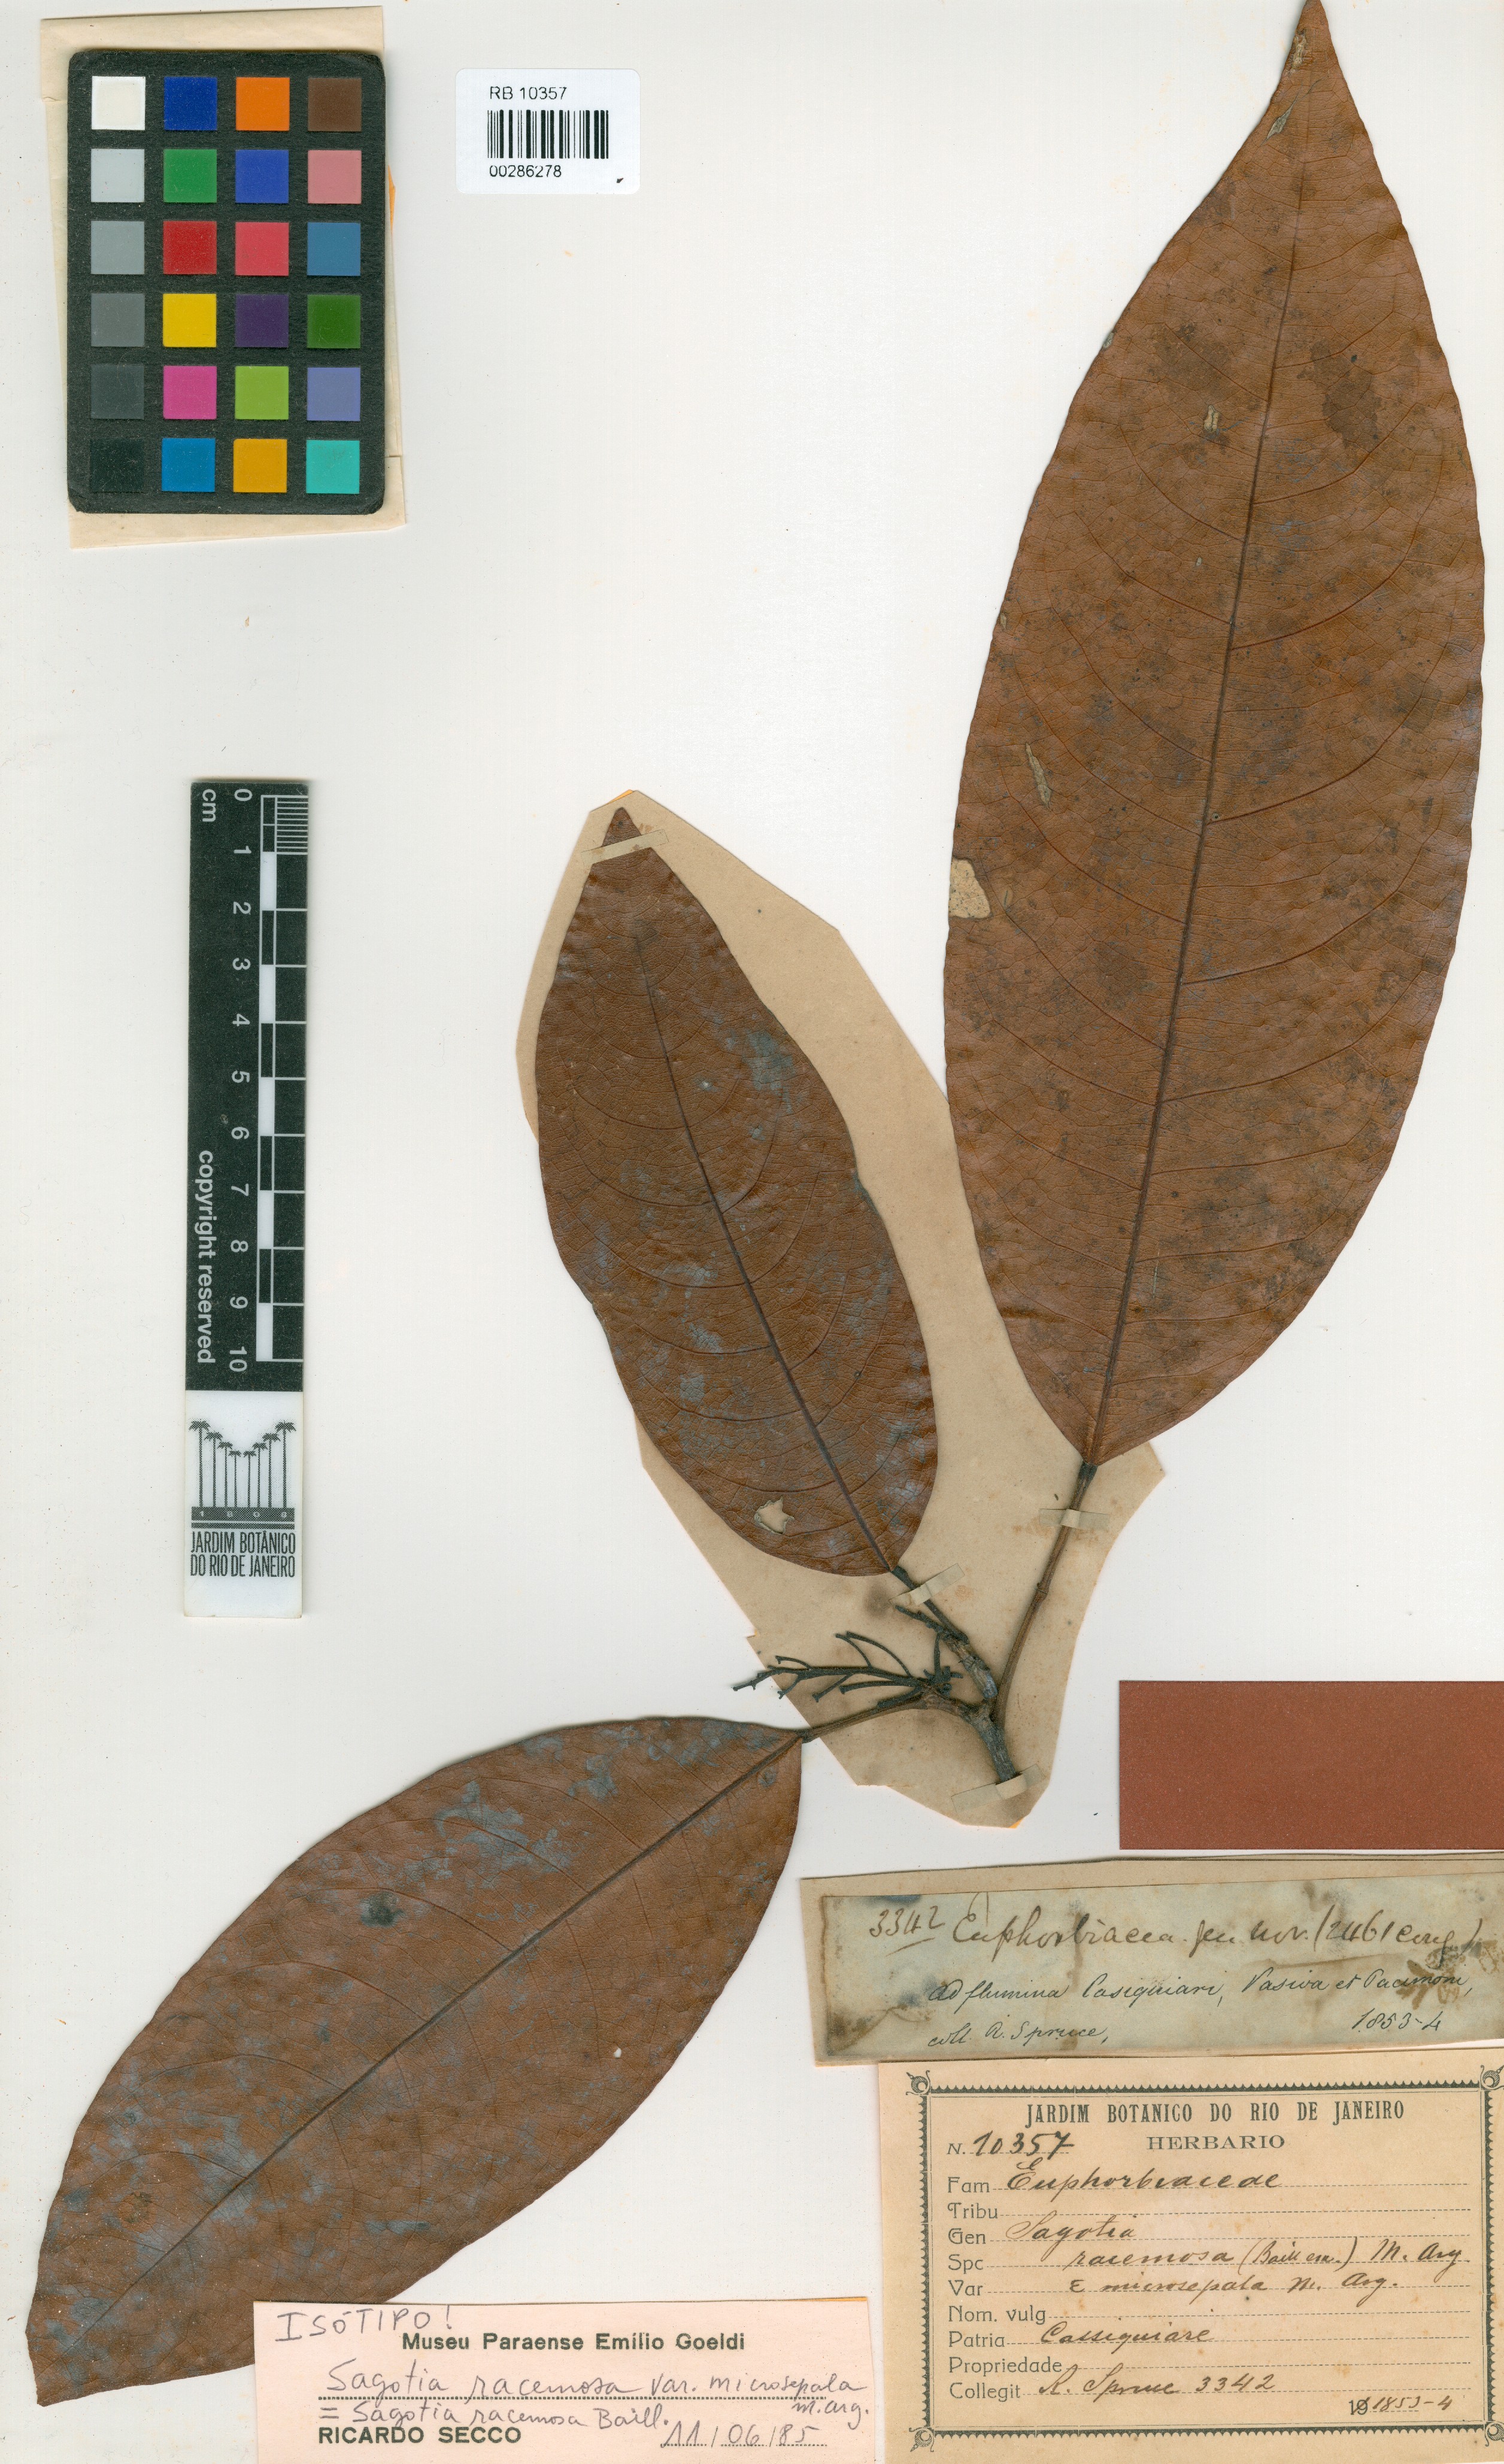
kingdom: Plantae
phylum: Tracheophyta
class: Magnoliopsida
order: Malpighiales
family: Euphorbiaceae
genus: Sagotia
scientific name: Sagotia racemosa
